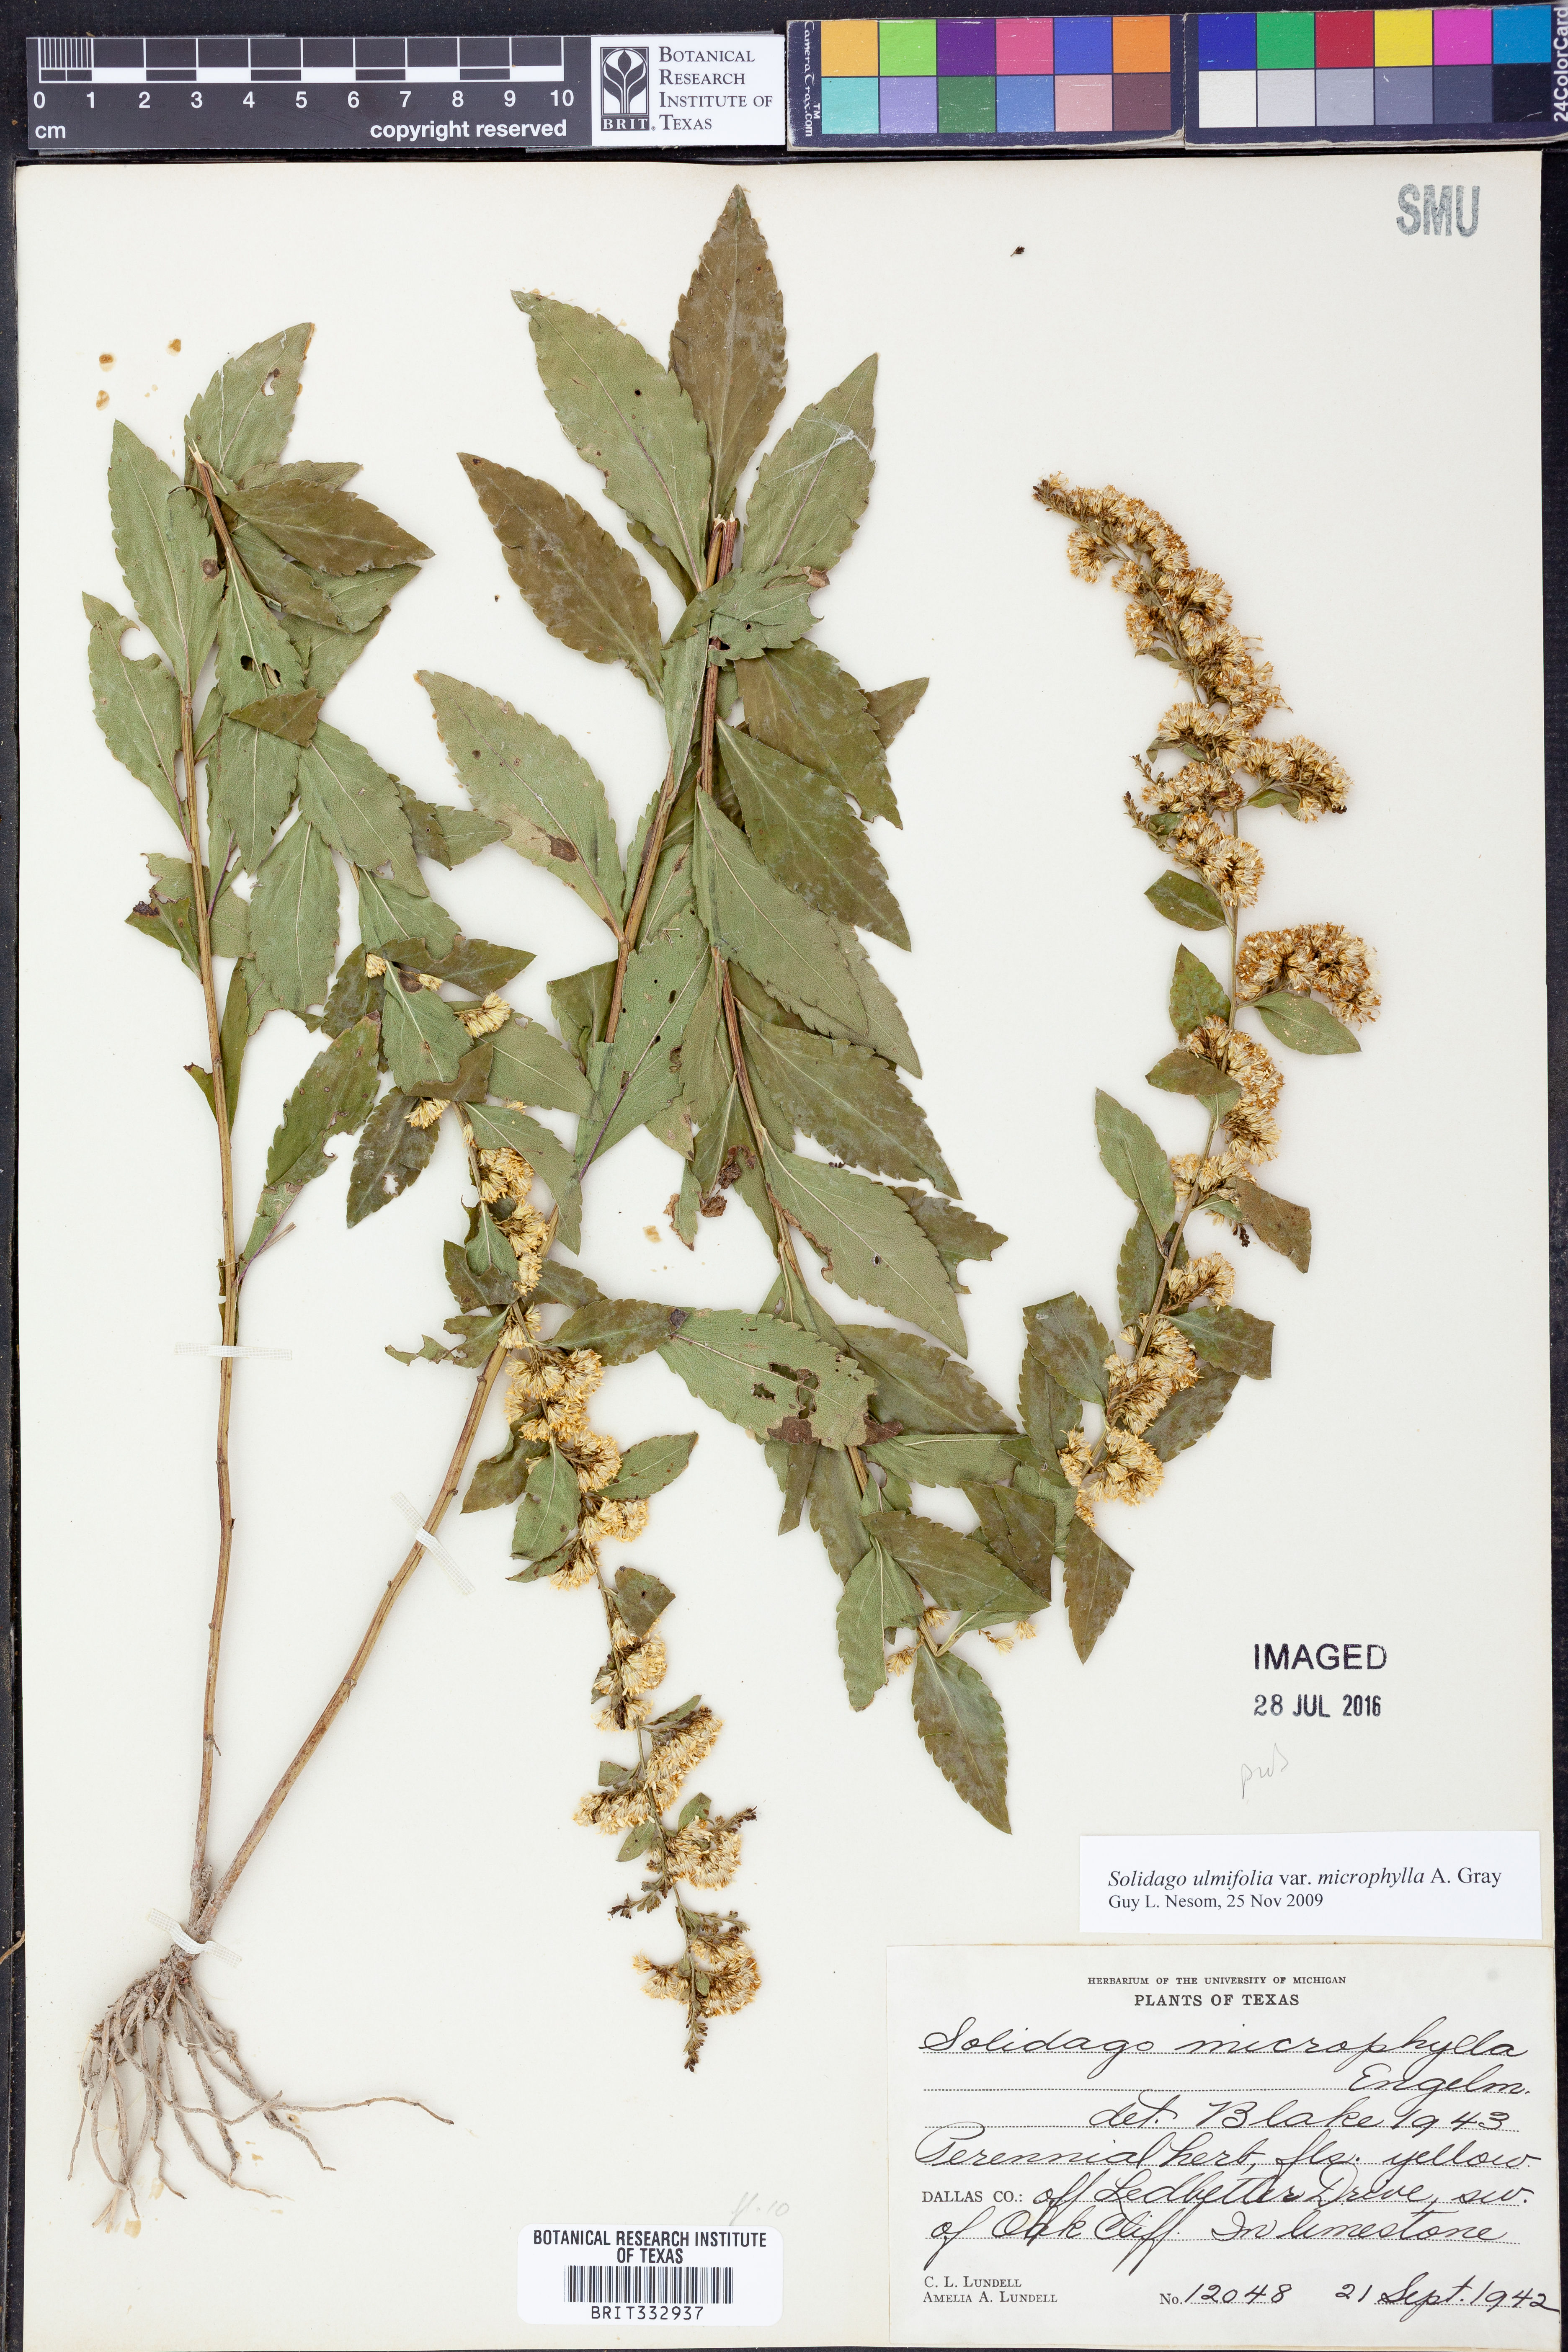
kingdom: Plantae
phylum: Tracheophyta
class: Magnoliopsida
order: Asterales
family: Asteraceae
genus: Solidago
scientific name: Solidago delicatula
